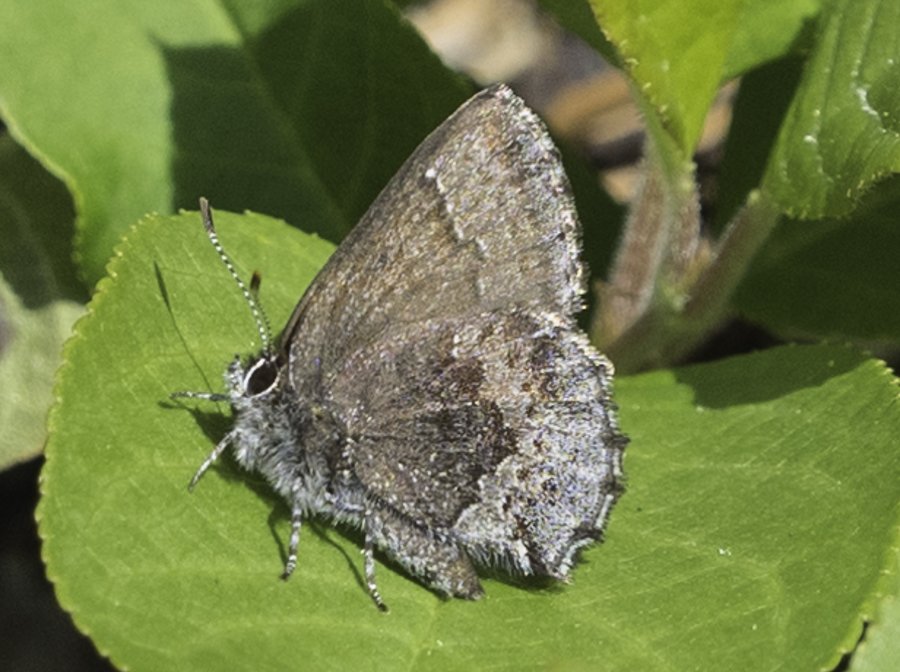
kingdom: Animalia
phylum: Arthropoda
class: Insecta
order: Lepidoptera
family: Lycaenidae
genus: Callophrys
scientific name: Callophrys polios
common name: Hoary Elfin
